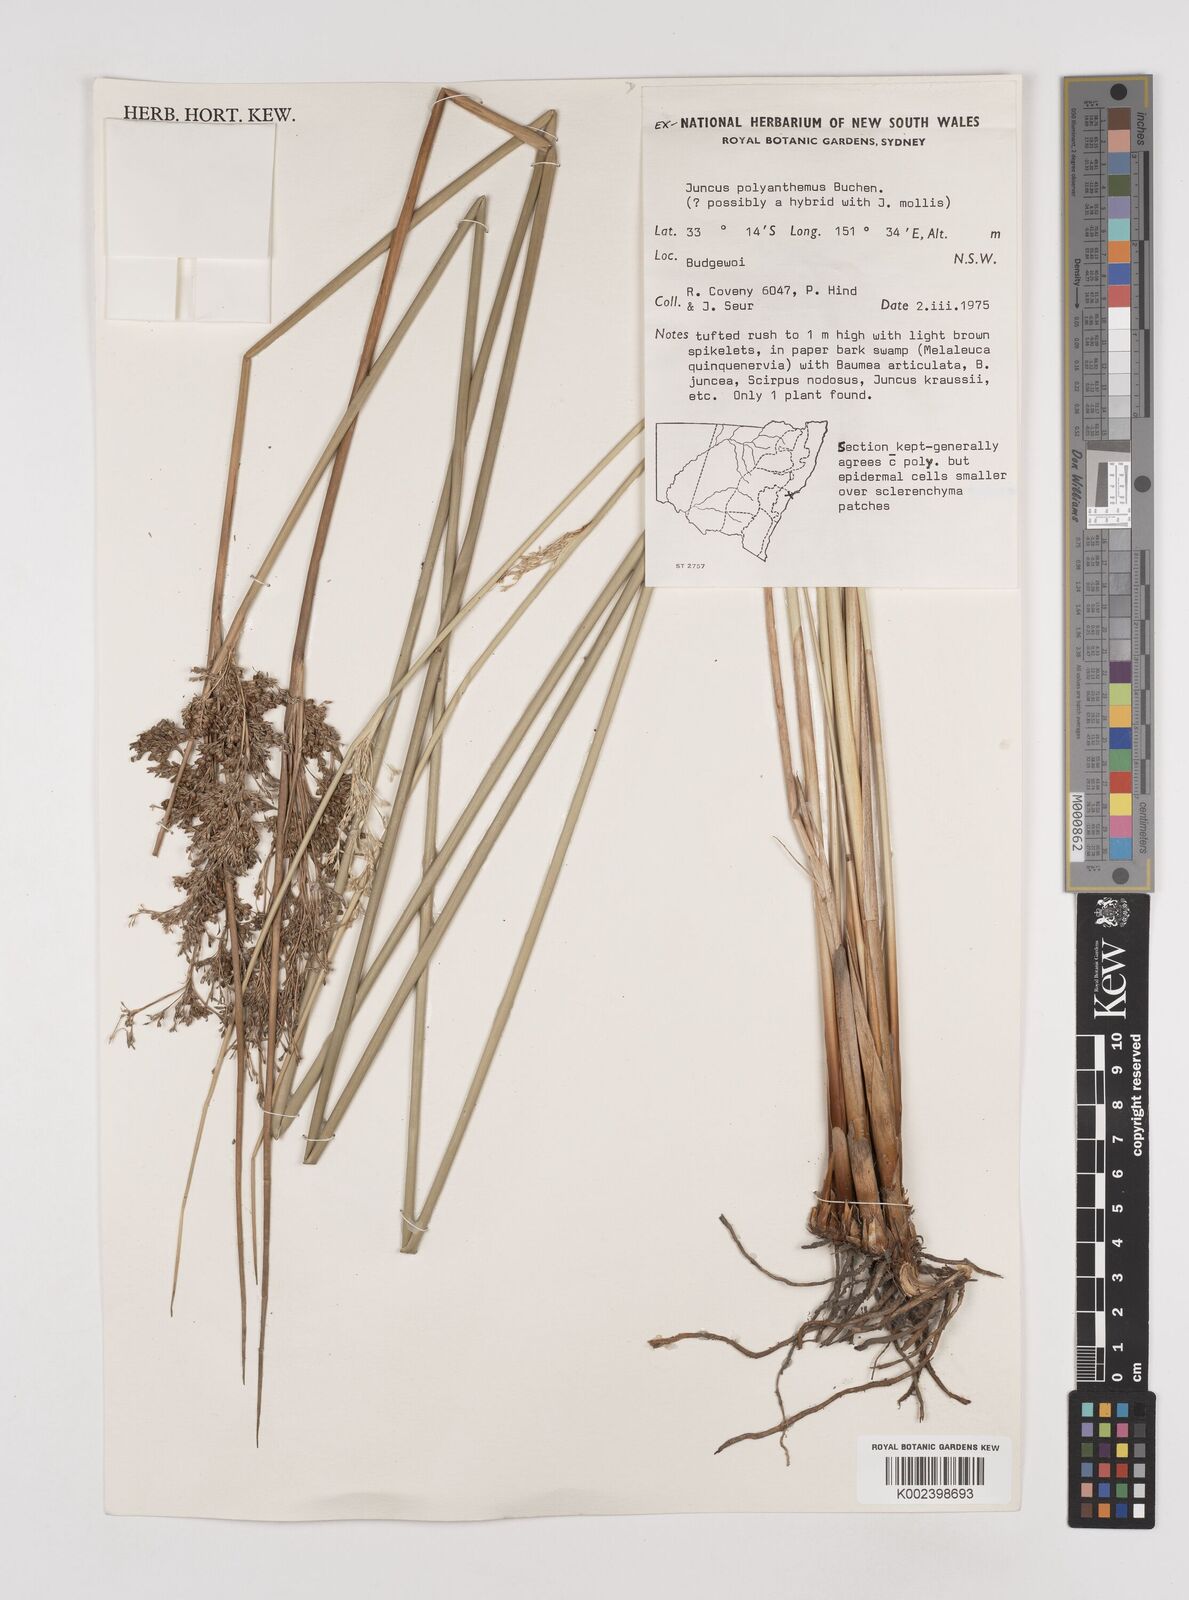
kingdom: Plantae
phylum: Tracheophyta
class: Liliopsida
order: Poales
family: Juncaceae
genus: Juncus
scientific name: Juncus
